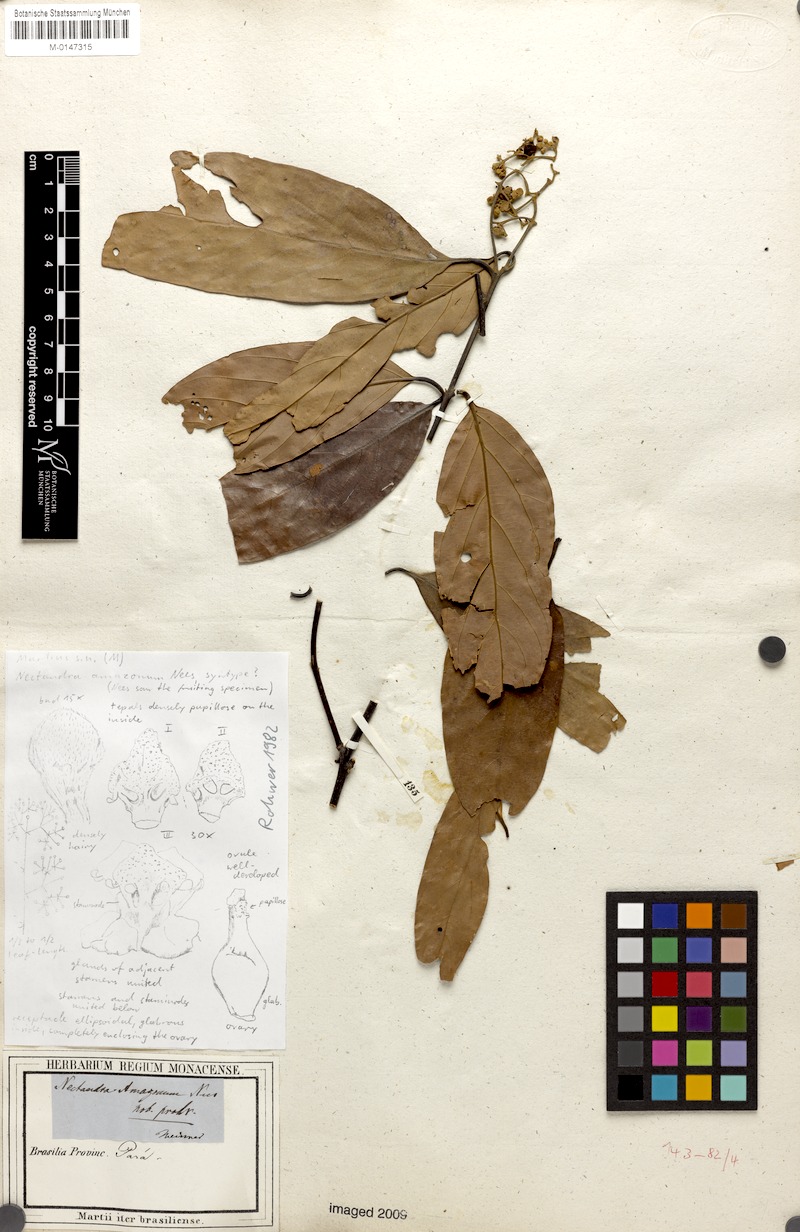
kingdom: Plantae
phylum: Tracheophyta
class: Magnoliopsida
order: Laurales
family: Lauraceae
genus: Nectandra
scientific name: Nectandra amazonum
